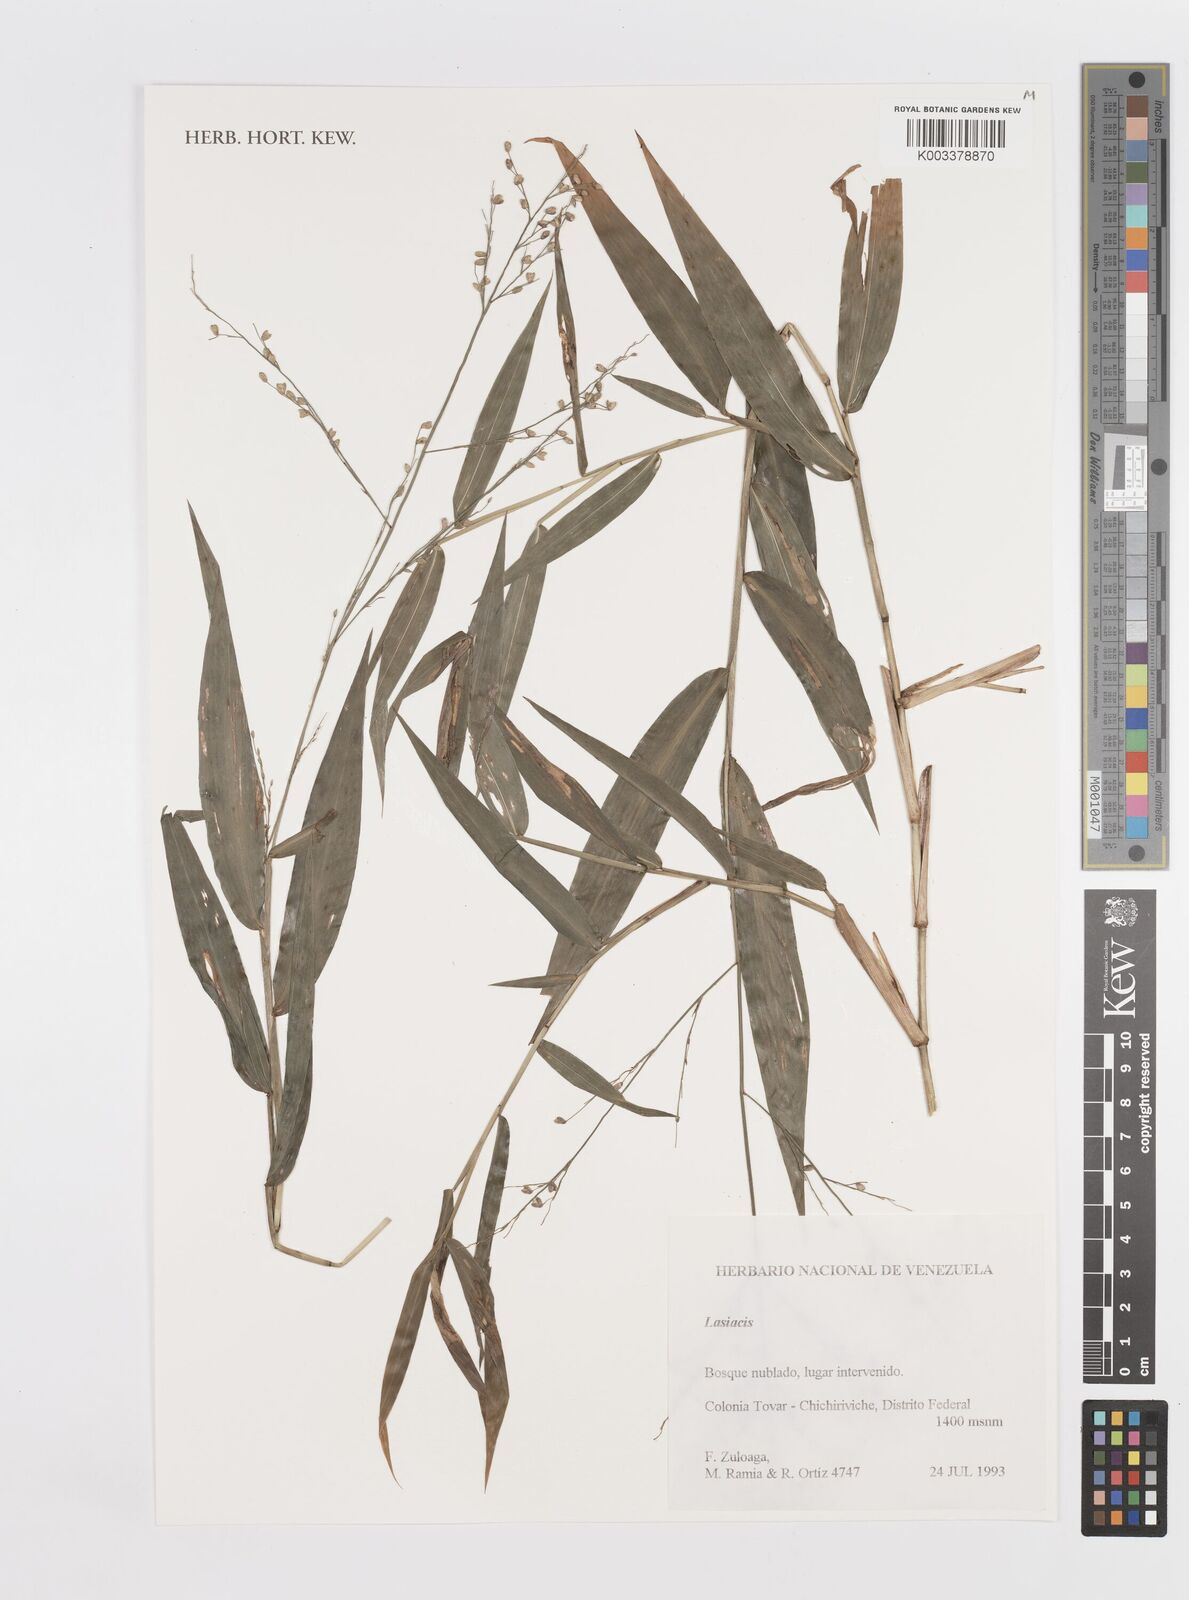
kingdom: Plantae
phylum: Tracheophyta
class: Liliopsida
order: Poales
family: Poaceae
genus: Lasiacis
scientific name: Lasiacis
